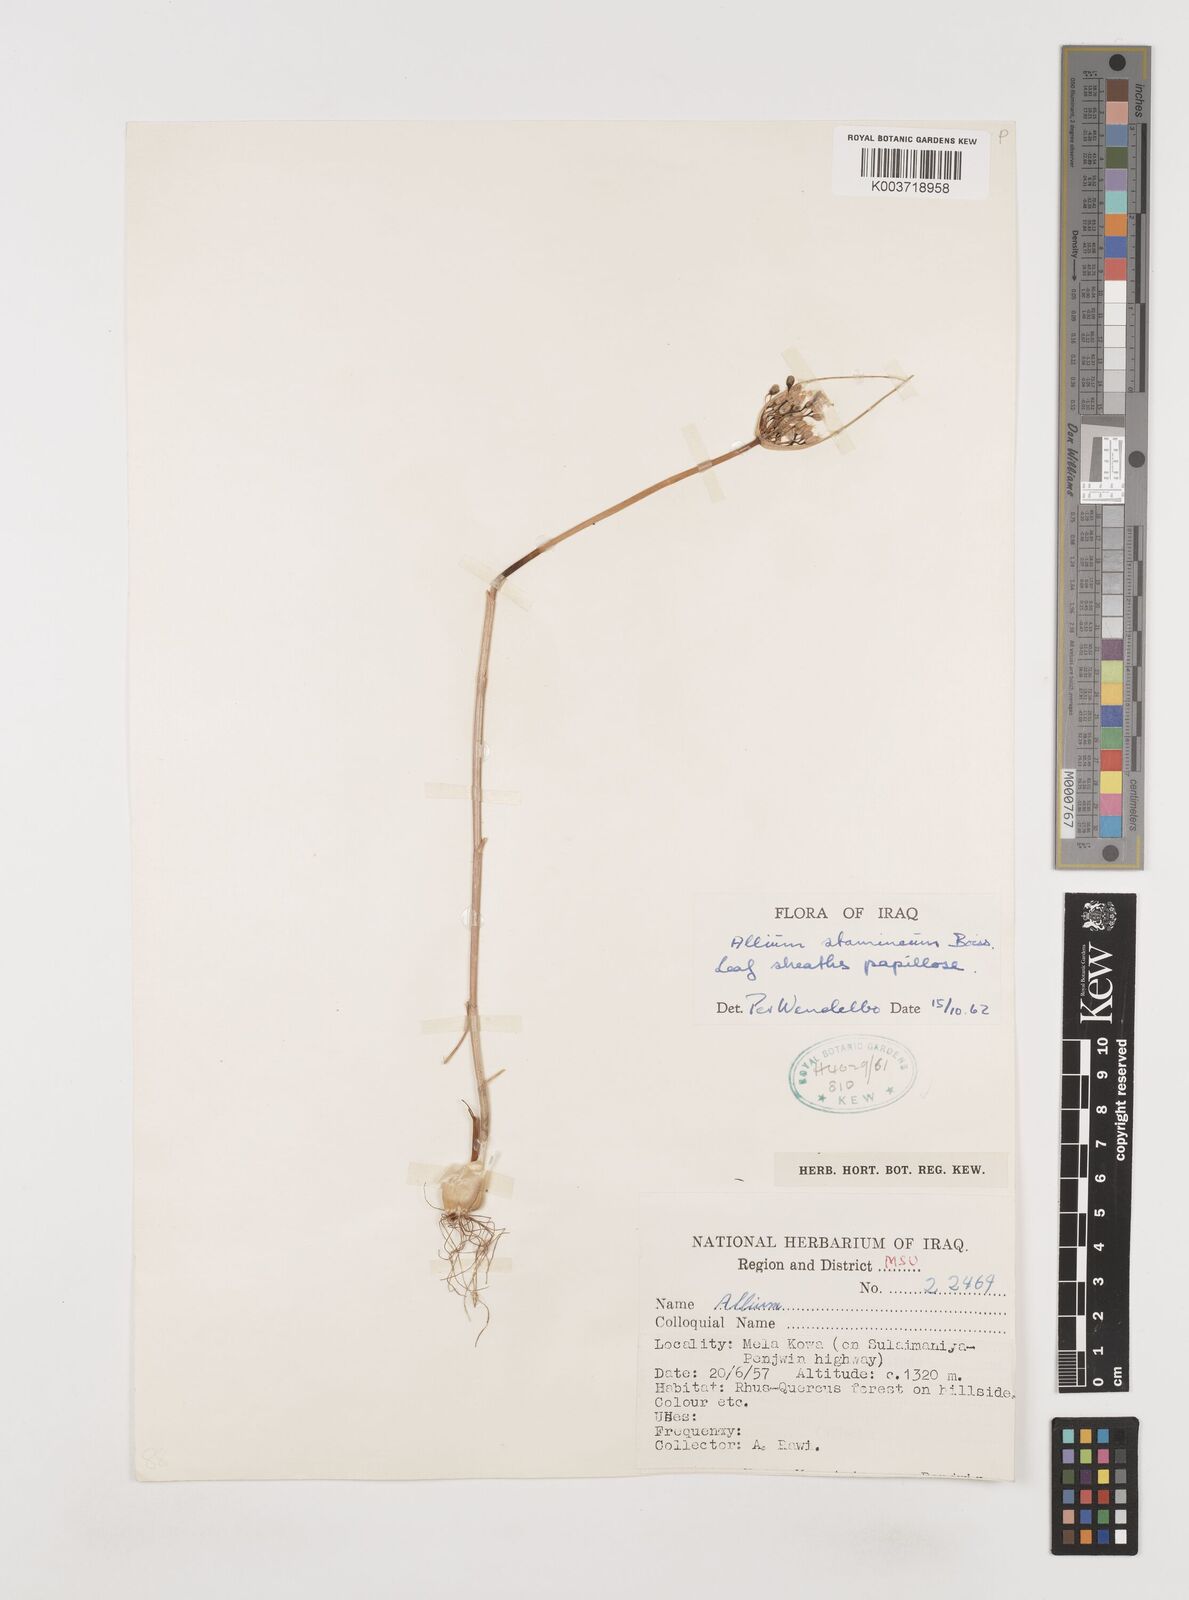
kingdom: Plantae
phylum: Tracheophyta
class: Liliopsida
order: Asparagales
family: Amaryllidaceae
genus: Allium
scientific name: Allium stamineum
